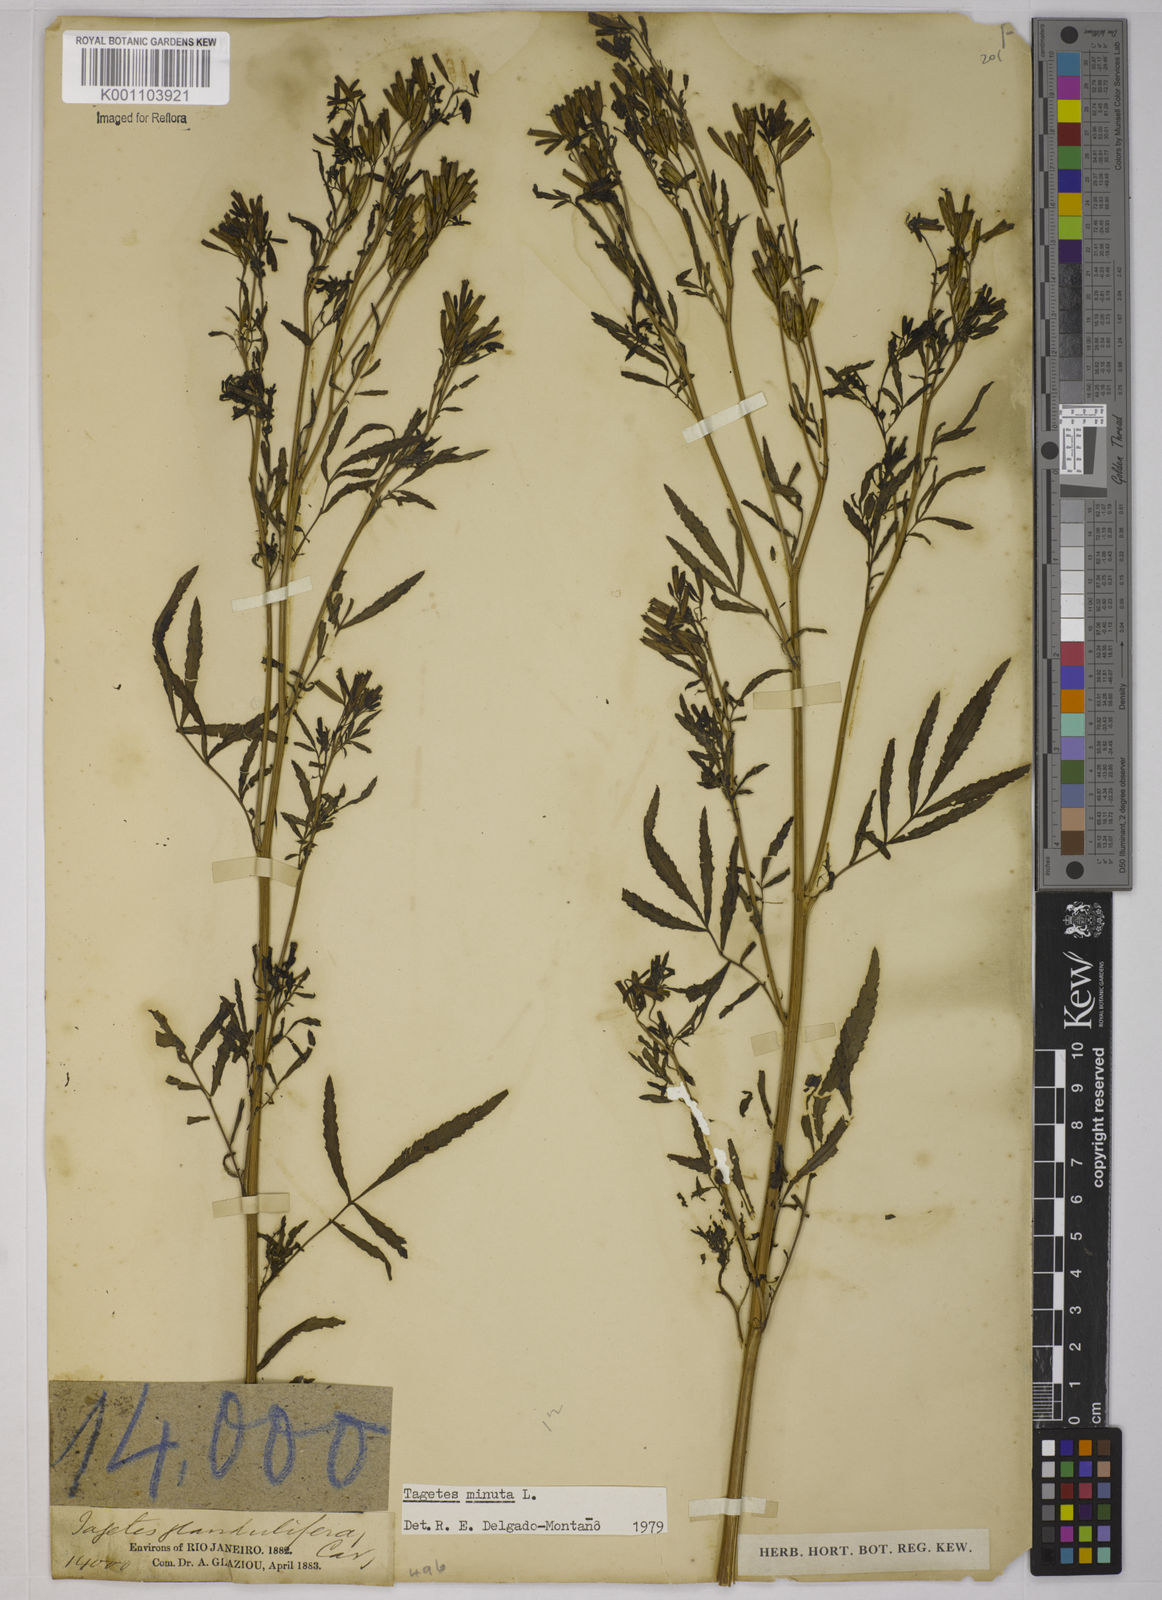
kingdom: Plantae
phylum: Tracheophyta
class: Magnoliopsida
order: Asterales
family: Asteraceae
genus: Tagetes
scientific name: Tagetes minuta
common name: Muster john henry
